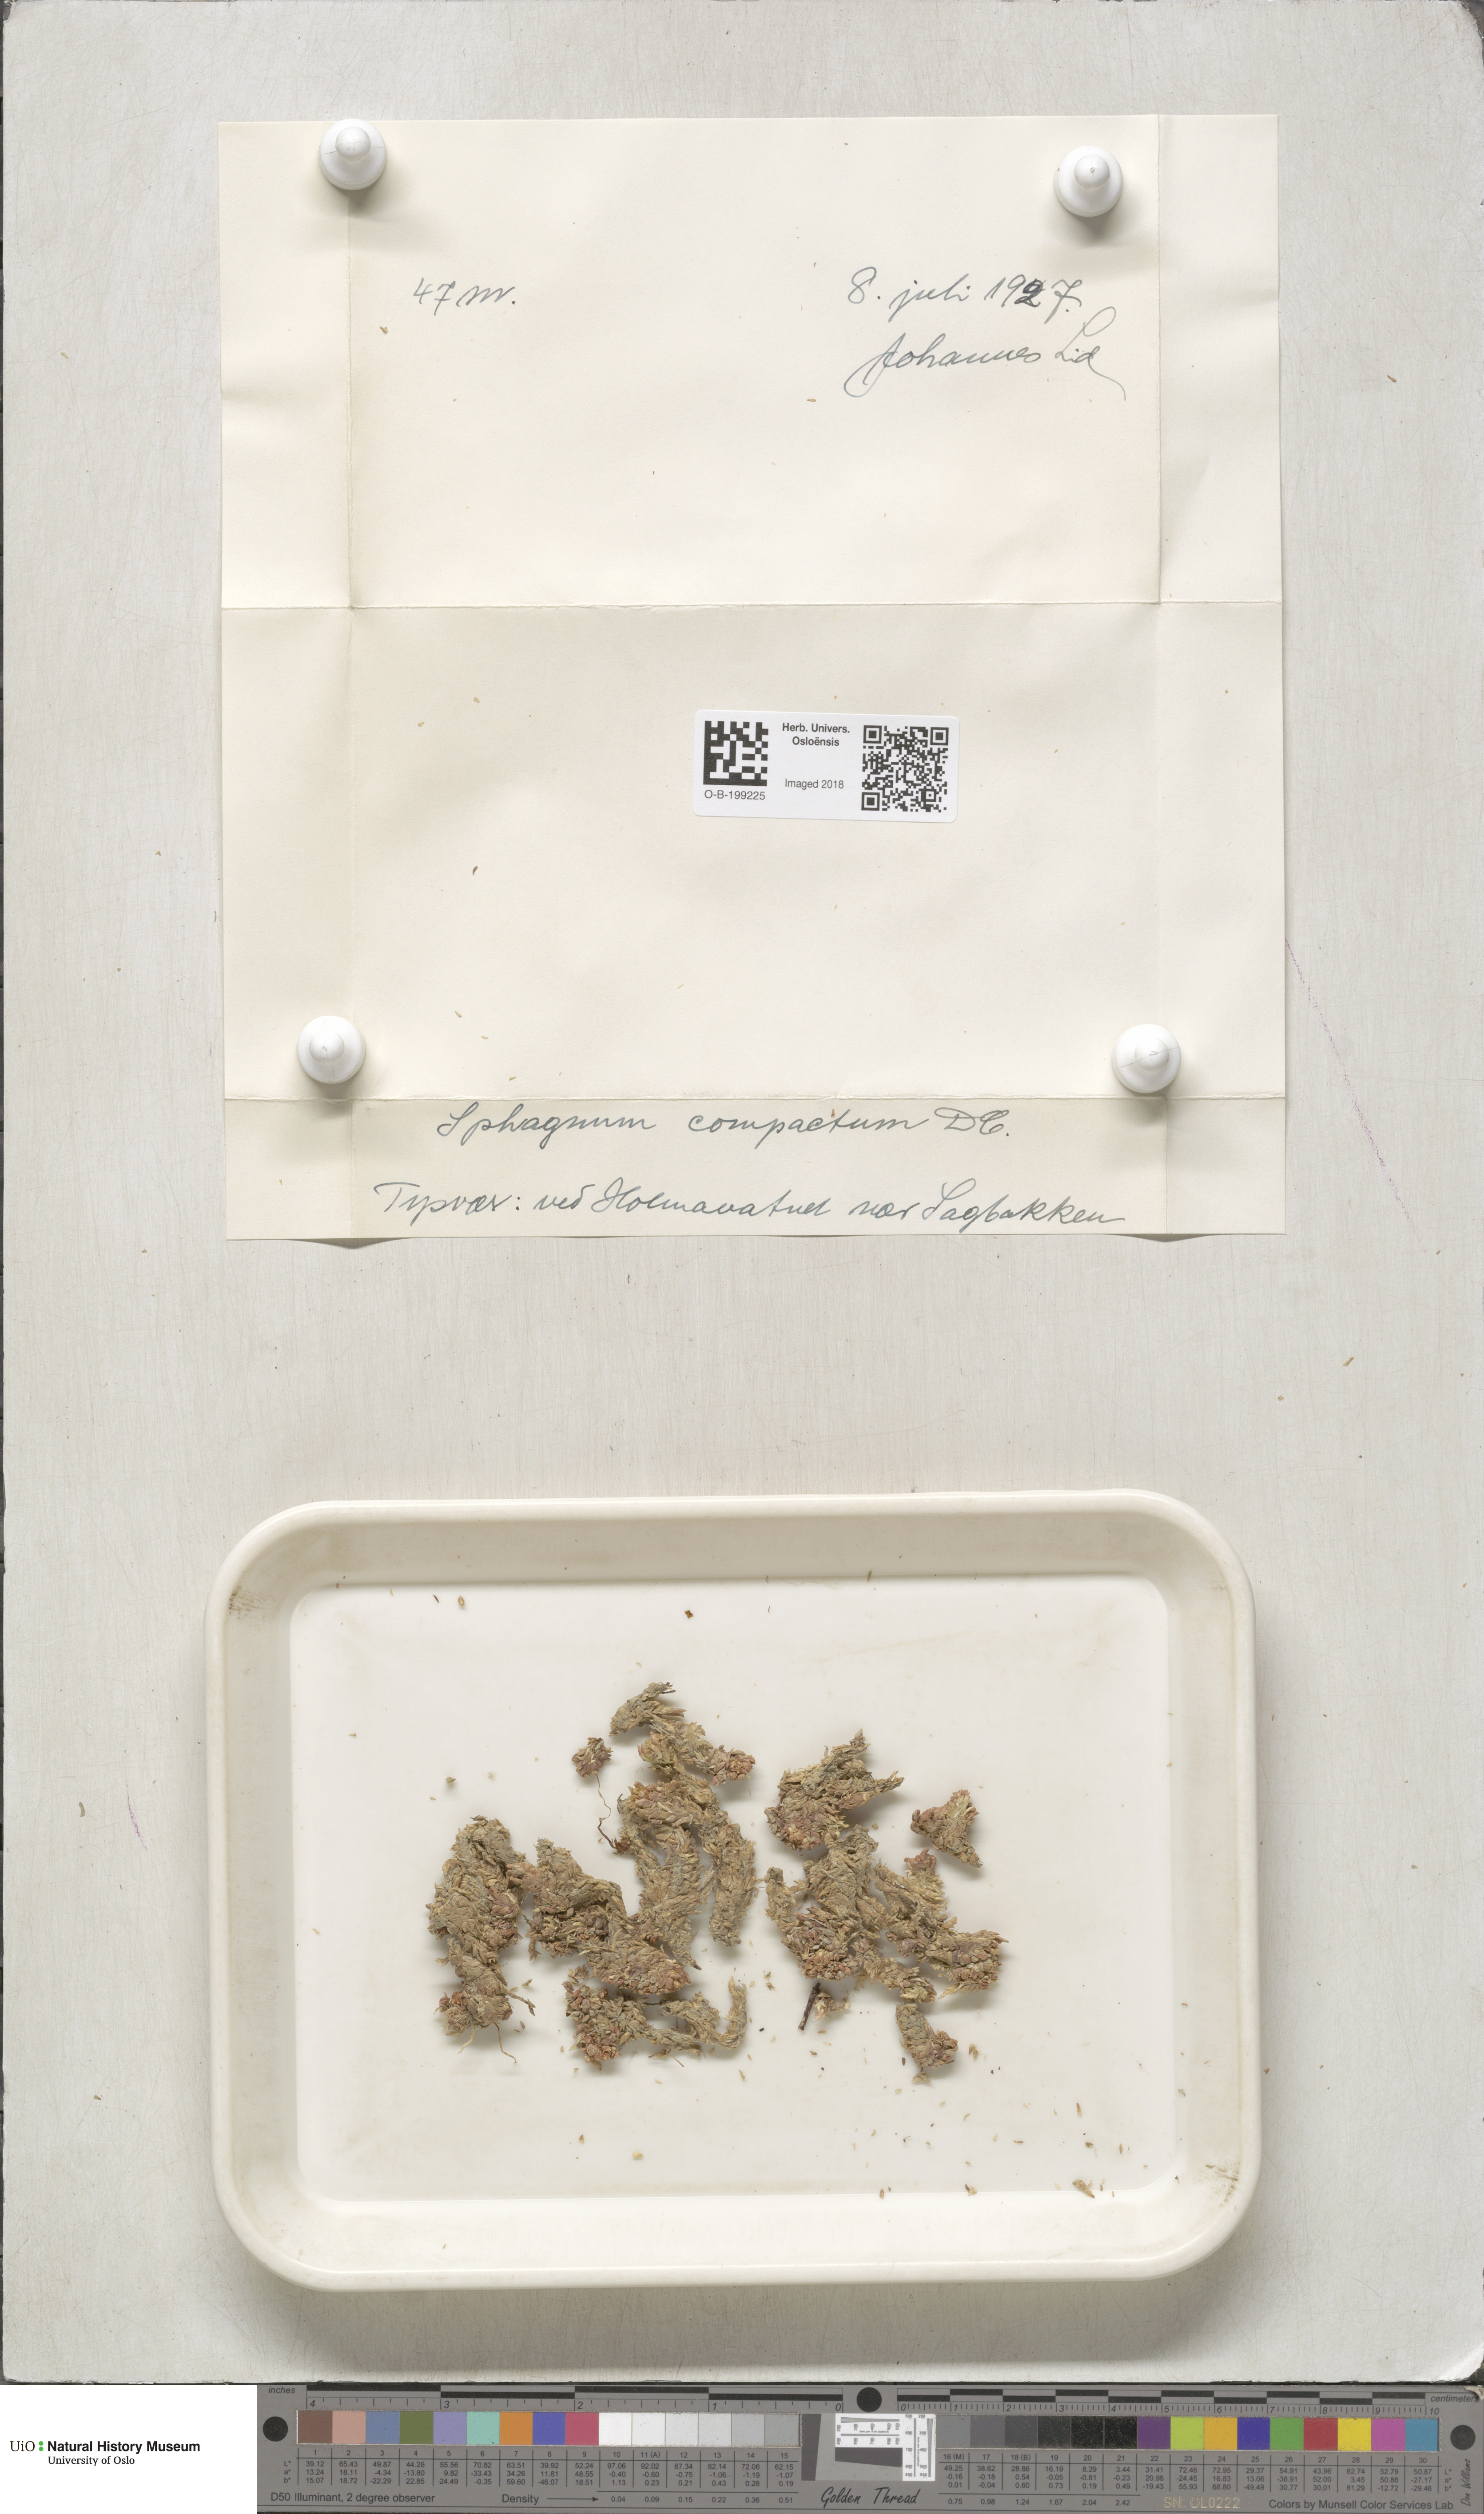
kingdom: Plantae
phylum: Bryophyta
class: Sphagnopsida
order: Sphagnales
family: Sphagnaceae
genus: Sphagnum
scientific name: Sphagnum compactum
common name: Compact peat moss
